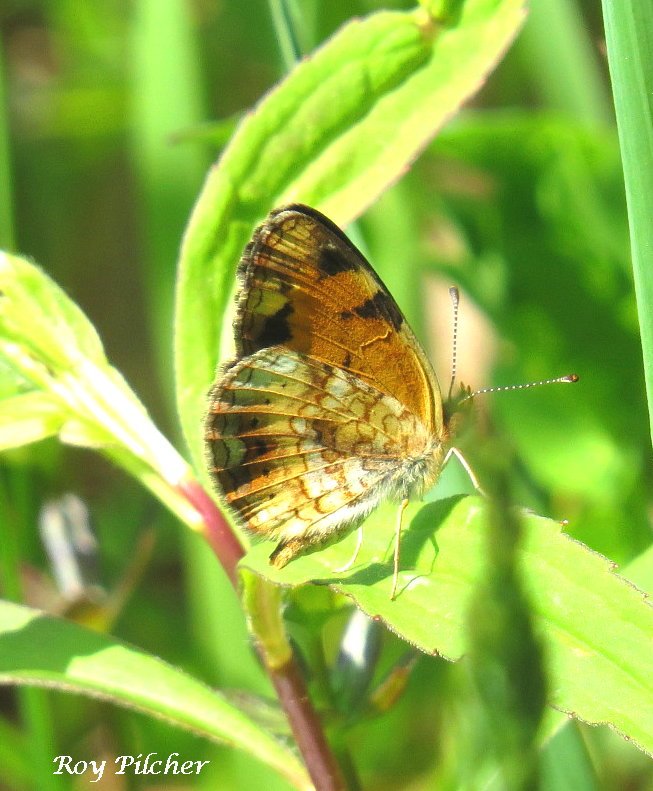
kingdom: Animalia
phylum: Arthropoda
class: Insecta
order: Lepidoptera
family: Nymphalidae
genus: Phyciodes
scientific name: Phyciodes tharos
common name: Northern Crescent
